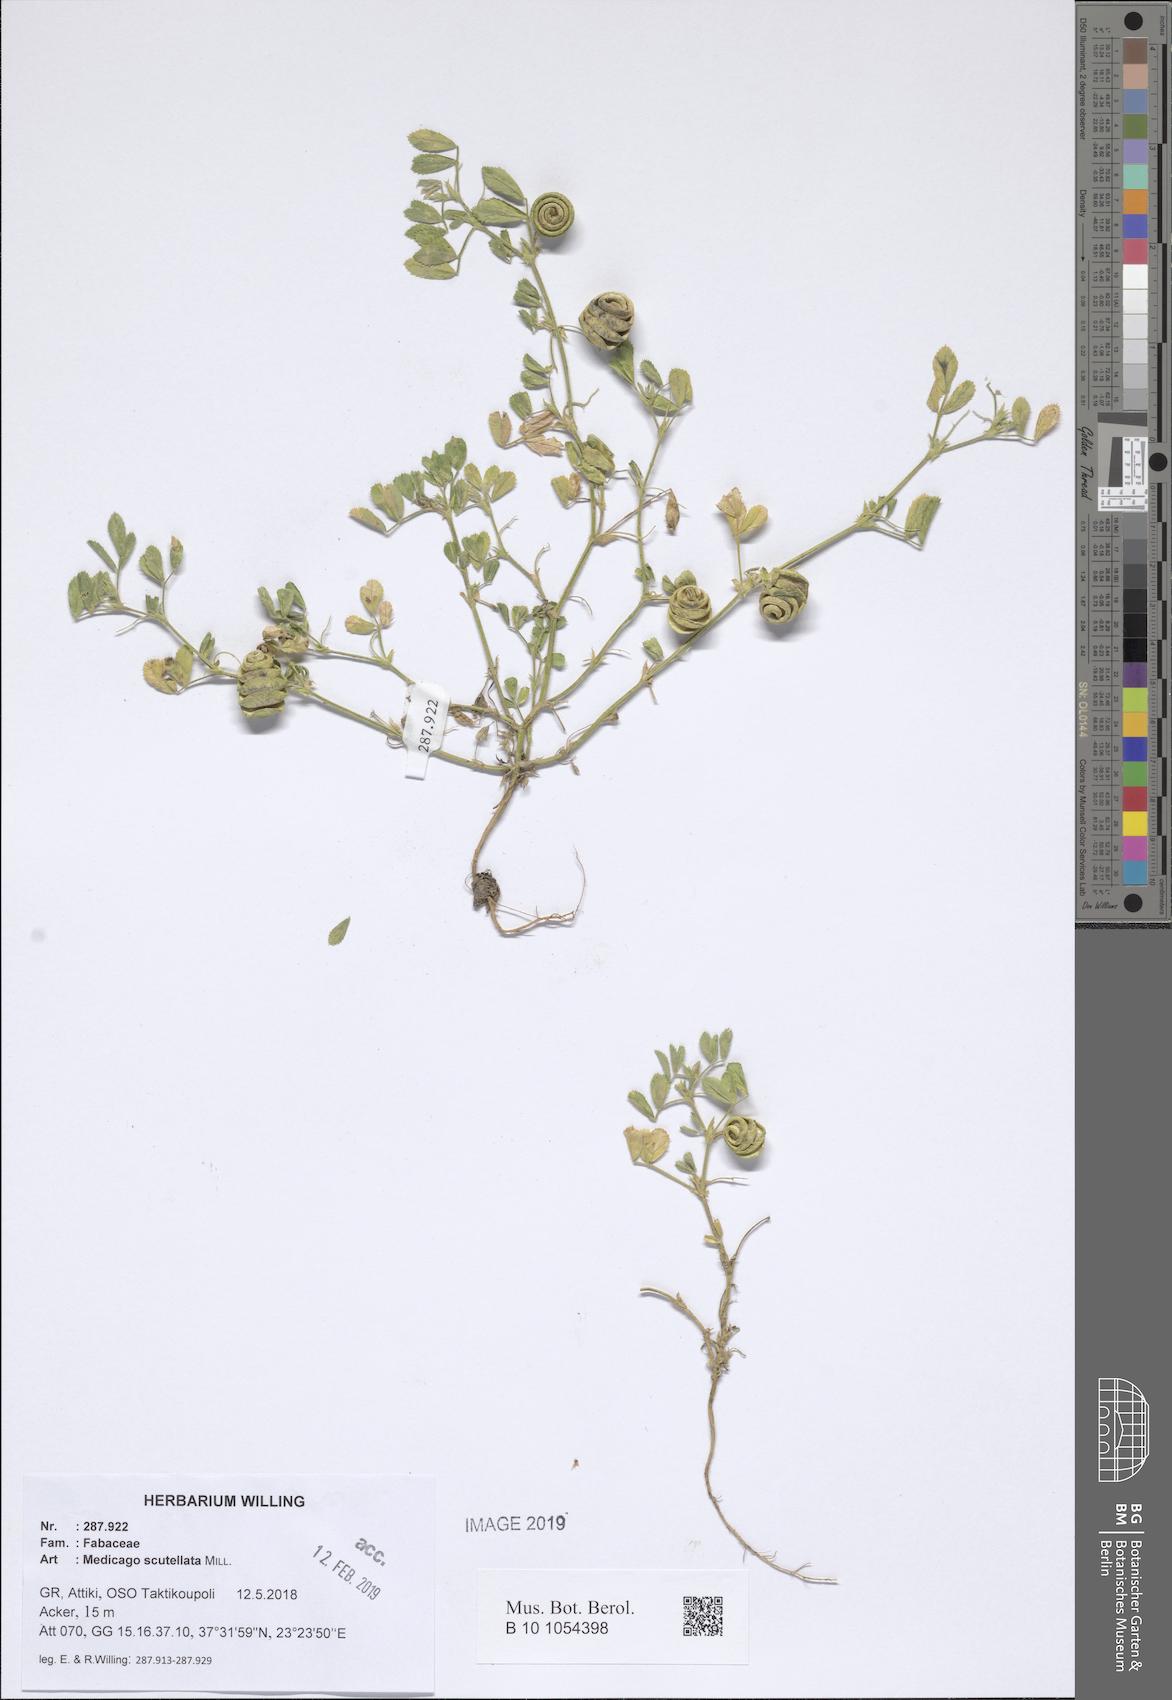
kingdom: Plantae
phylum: Tracheophyta
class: Magnoliopsida
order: Fabales
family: Fabaceae
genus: Medicago
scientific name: Medicago scutellata
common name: Snail medick
